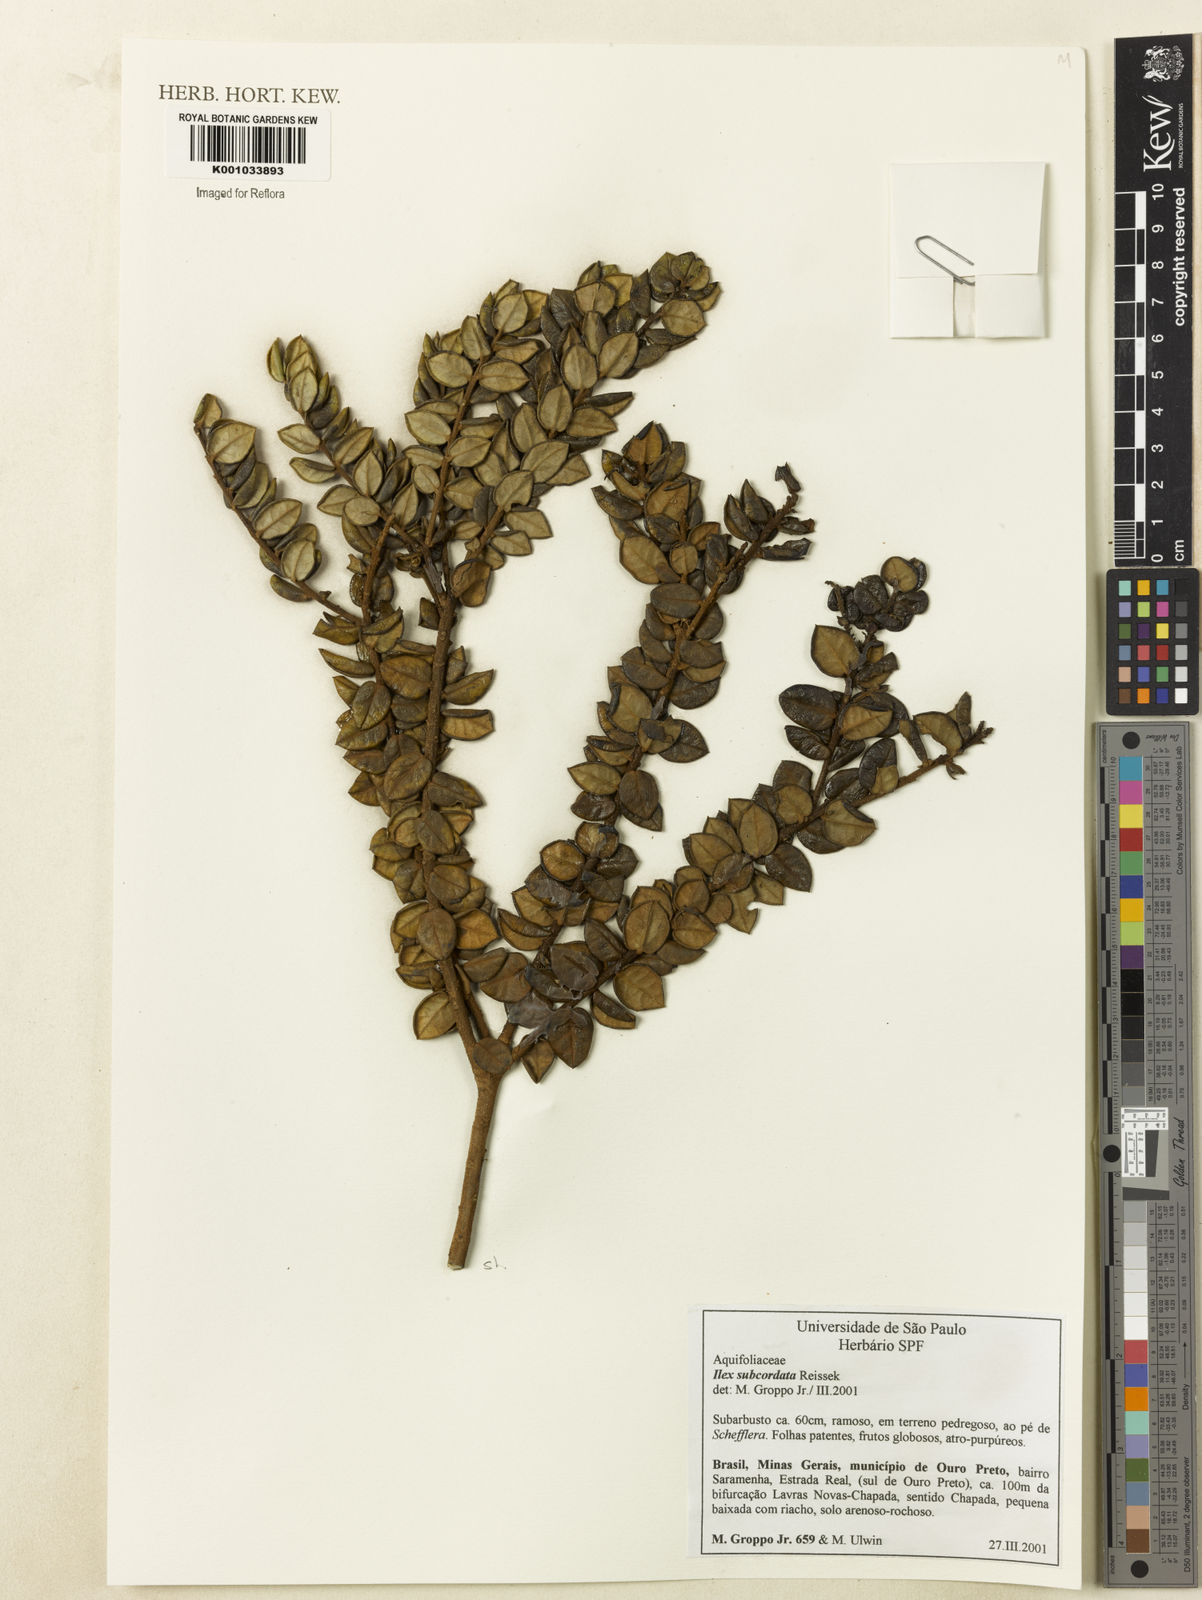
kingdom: Plantae
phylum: Tracheophyta
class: Magnoliopsida
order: Aquifoliales
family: Aquifoliaceae
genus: Ilex
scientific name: Ilex subcordata
